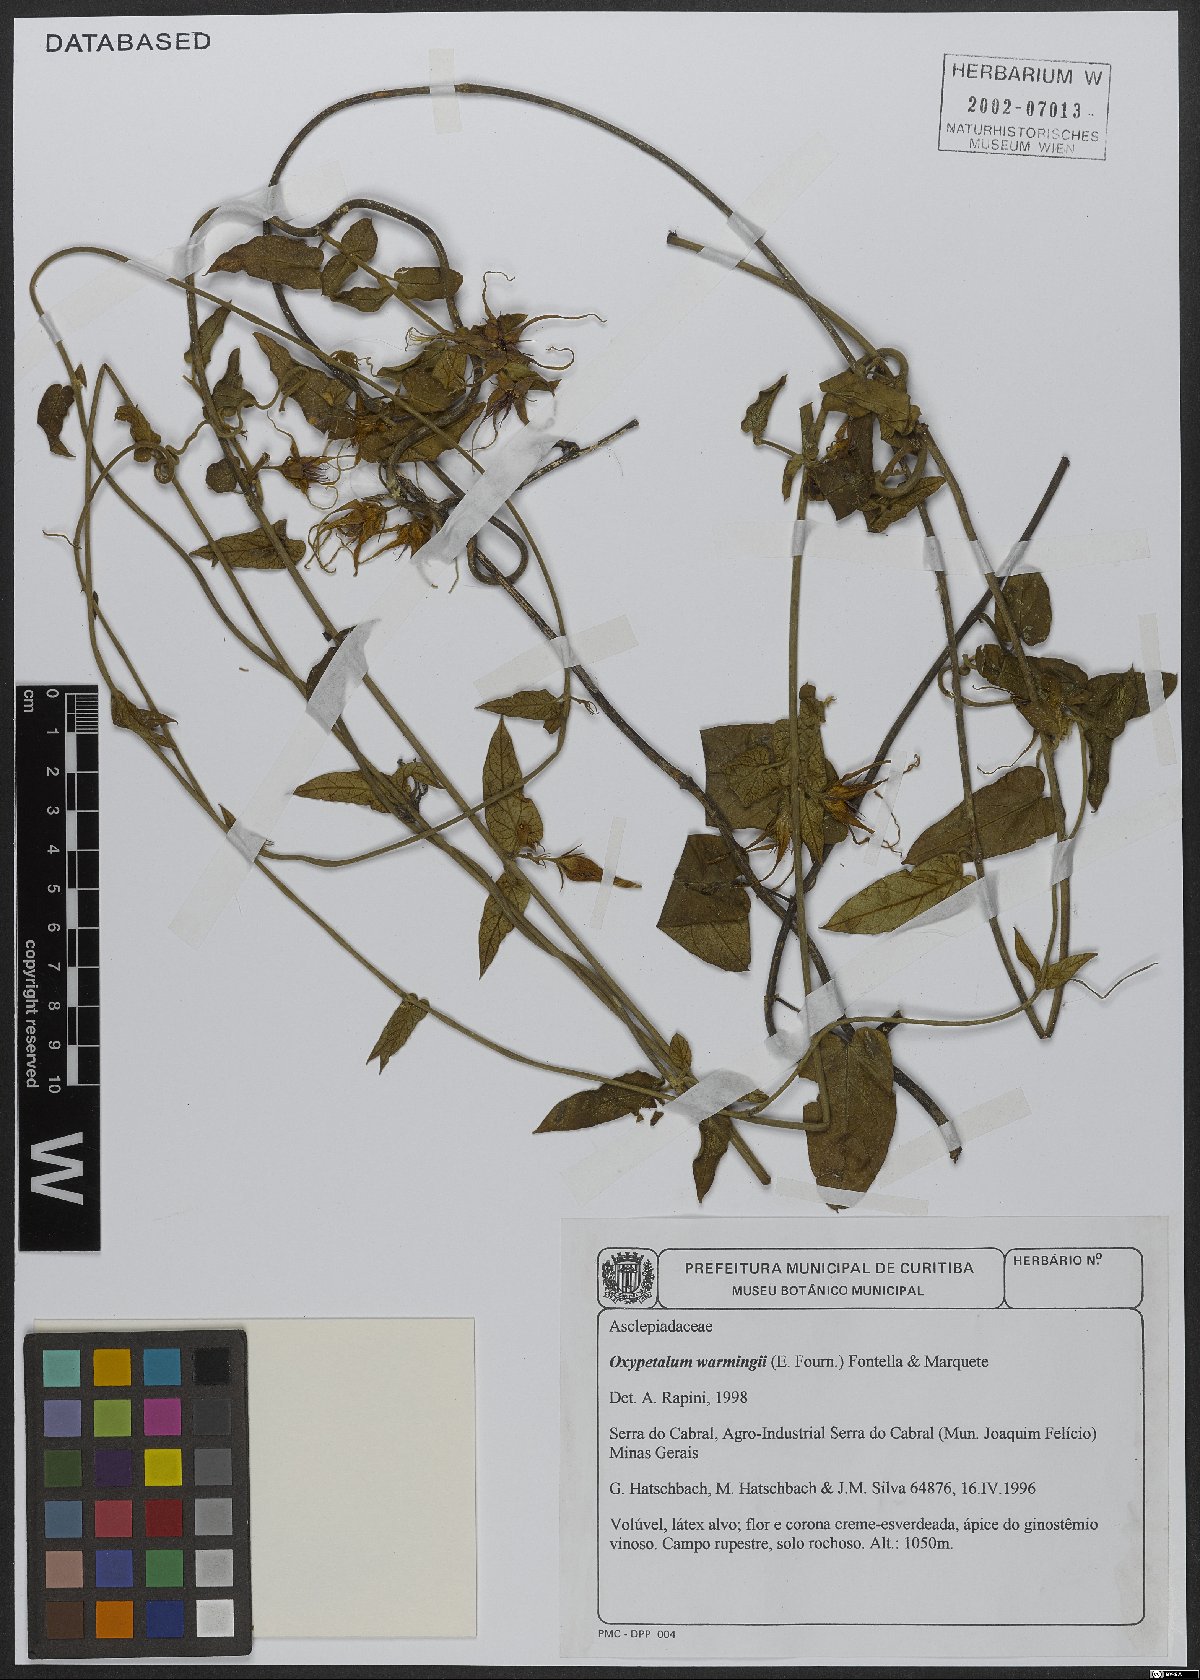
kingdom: Plantae
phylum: Tracheophyta
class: Magnoliopsida
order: Gentianales
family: Apocynaceae
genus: Oxypetalum
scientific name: Oxypetalum warmingii
